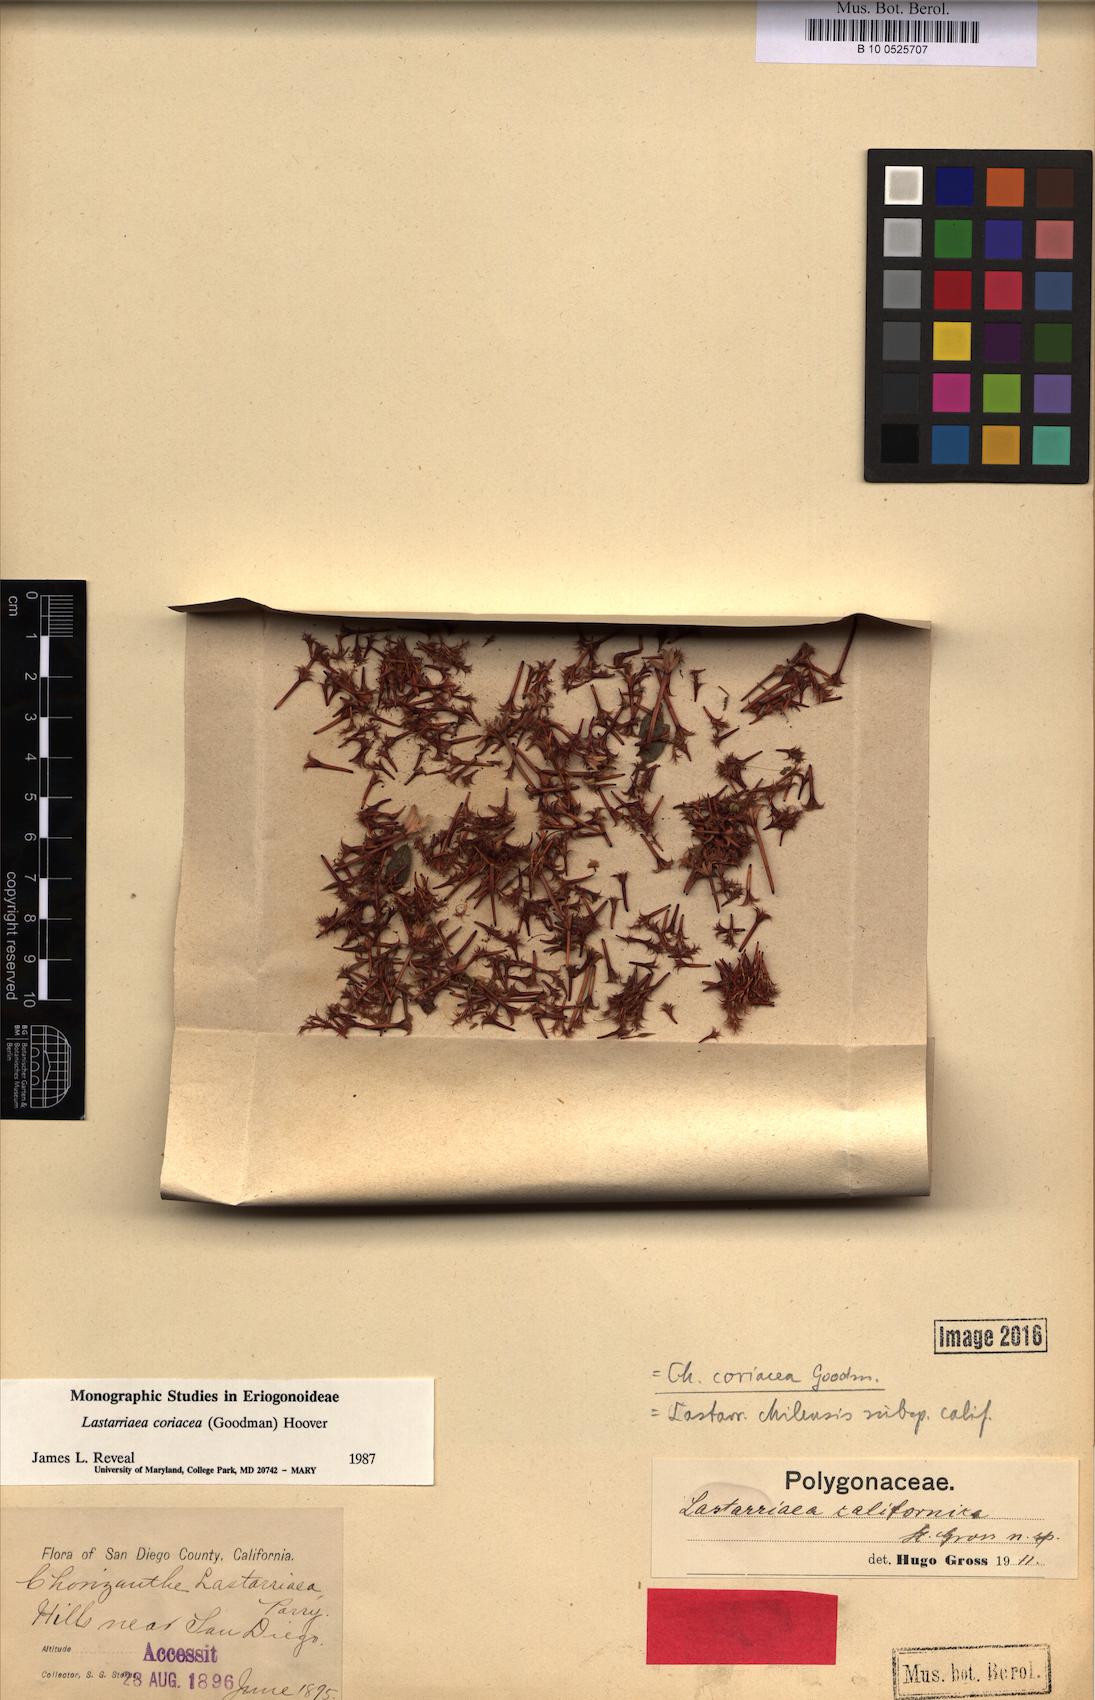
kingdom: Plantae
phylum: Tracheophyta
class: Magnoliopsida
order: Caryophyllales
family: Polygonaceae
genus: Lastarriaea
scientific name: Lastarriaea coriacea
